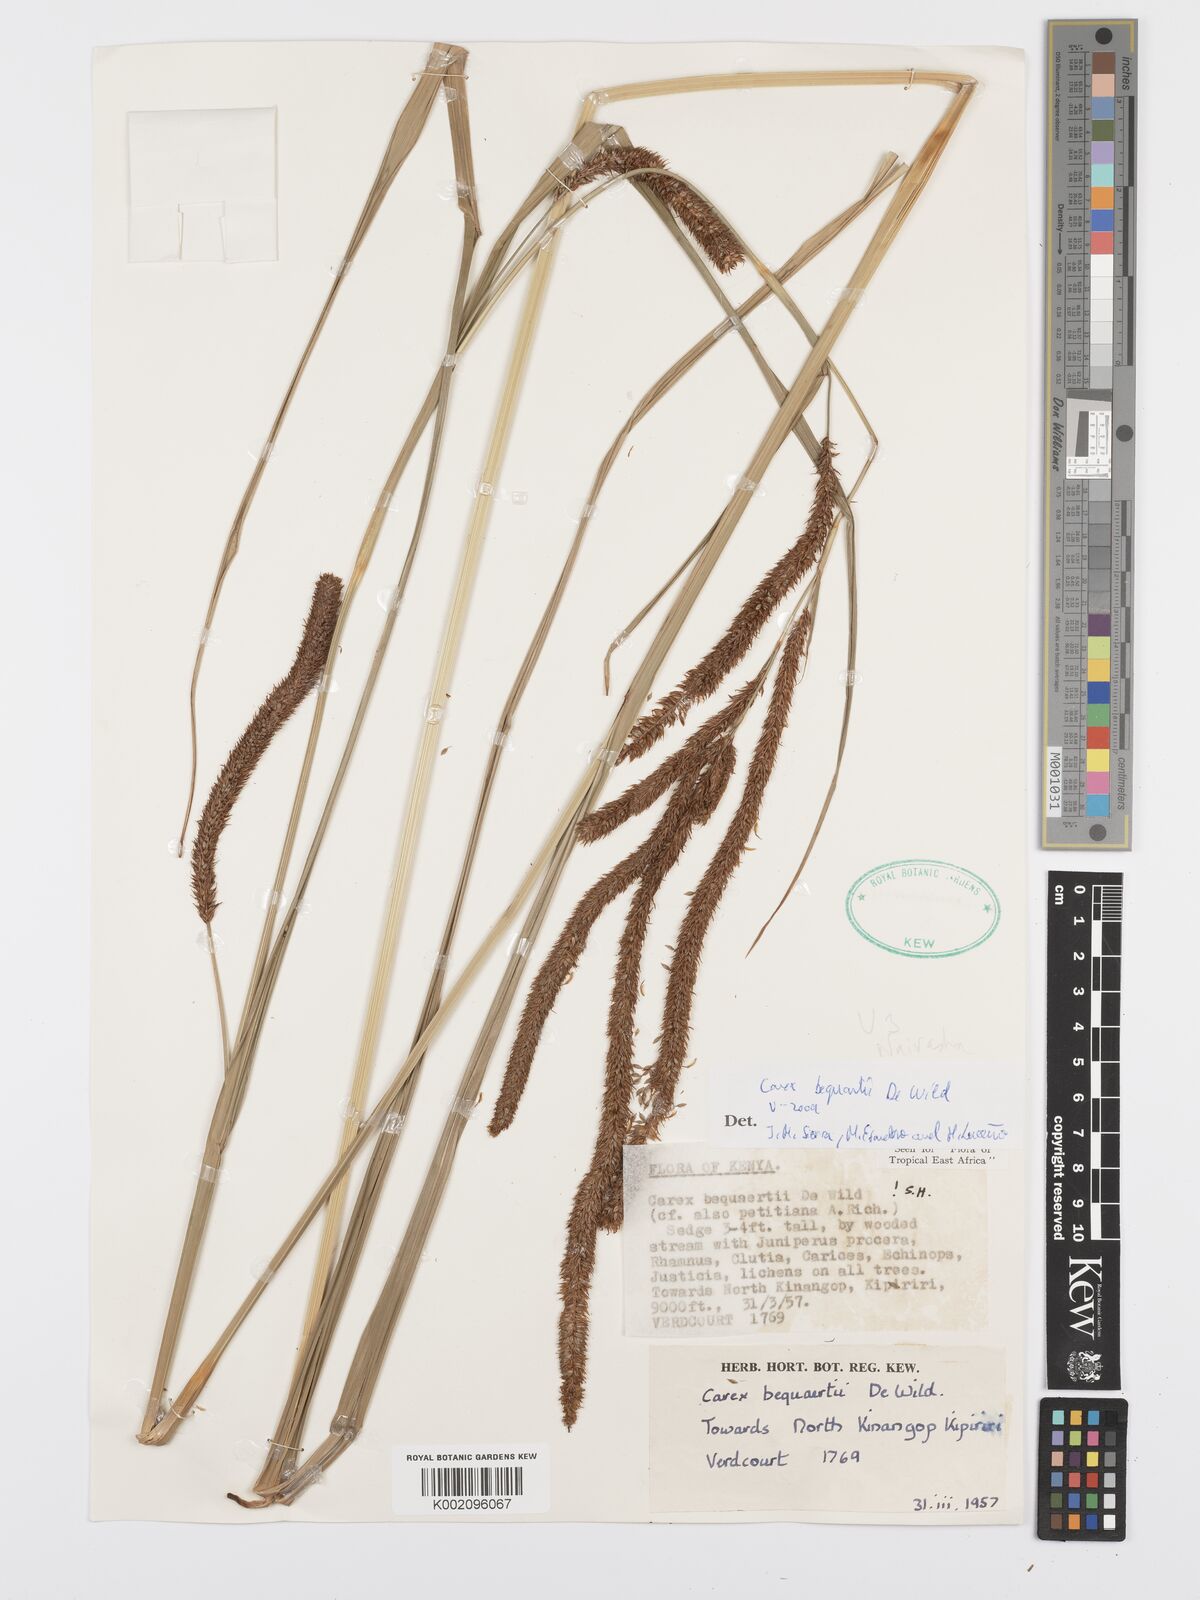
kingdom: Plantae
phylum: Tracheophyta
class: Liliopsida
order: Poales
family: Cyperaceae
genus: Carex
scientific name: Carex bequaertii
